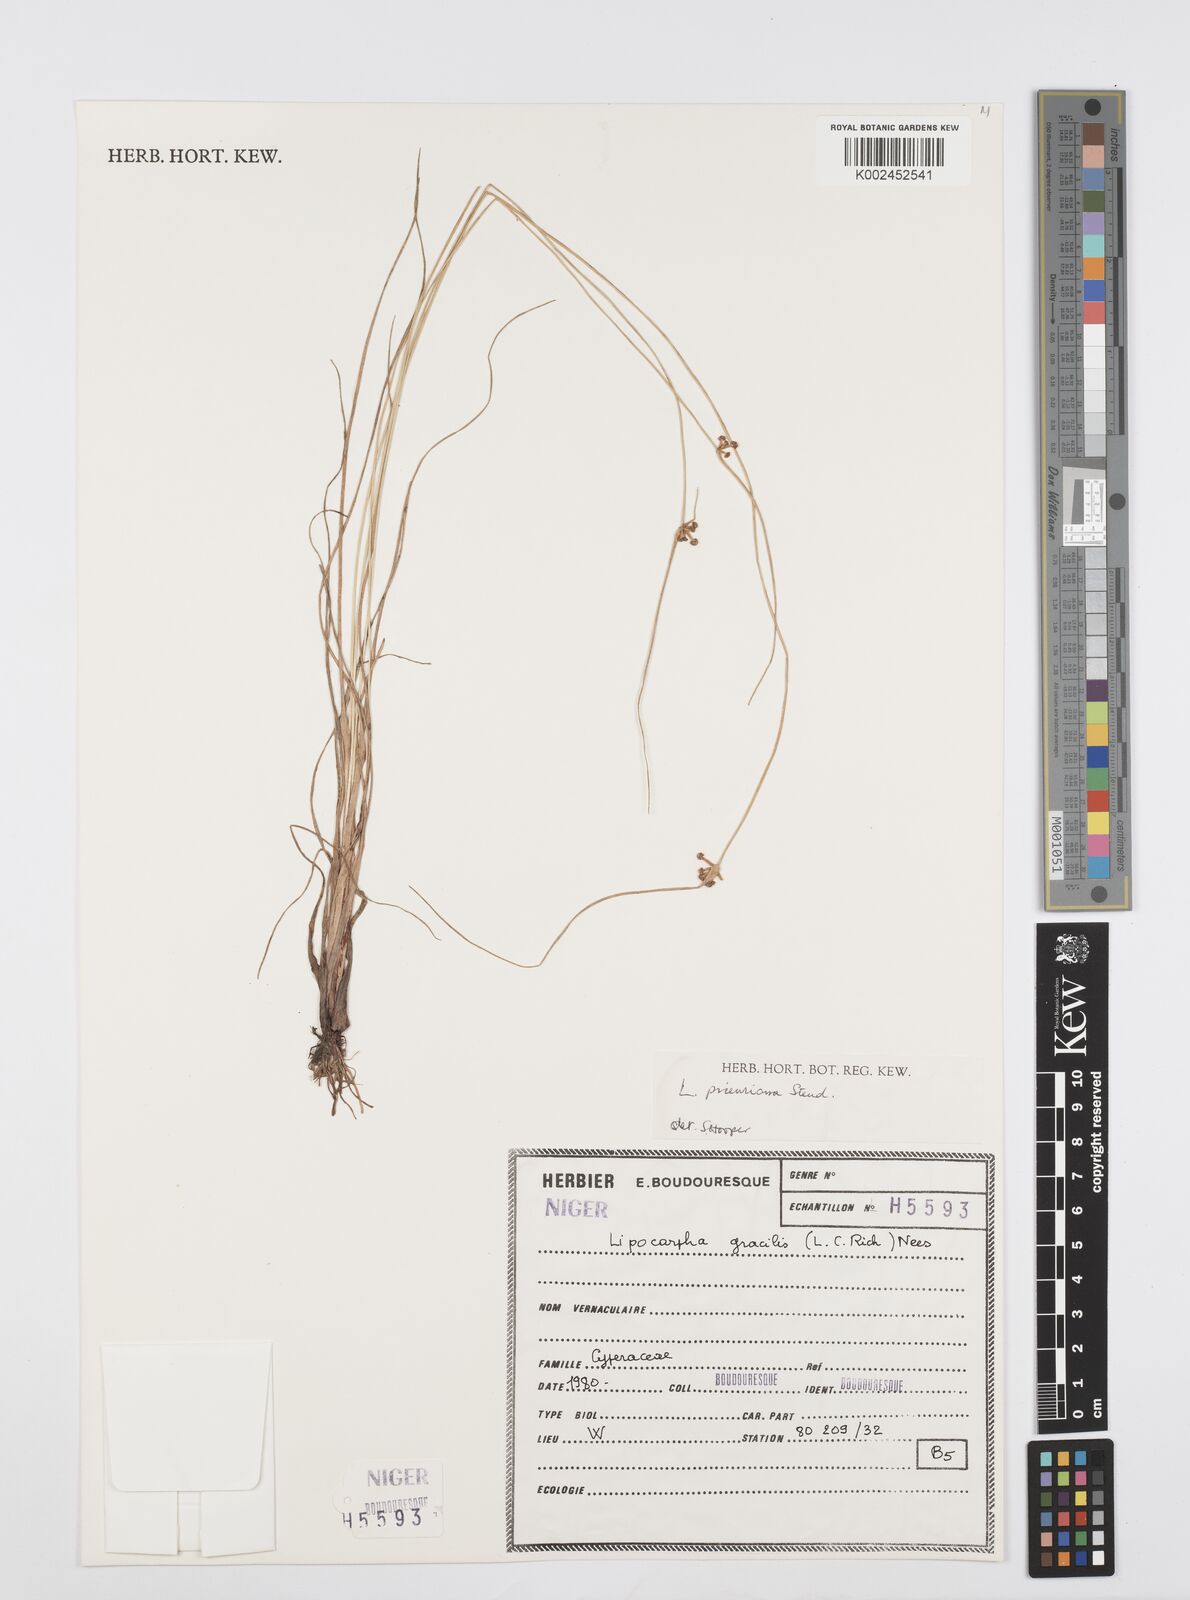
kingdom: Plantae
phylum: Tracheophyta
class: Liliopsida
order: Poales
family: Cyperaceae
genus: Cyperus
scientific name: Cyperus filiformis
